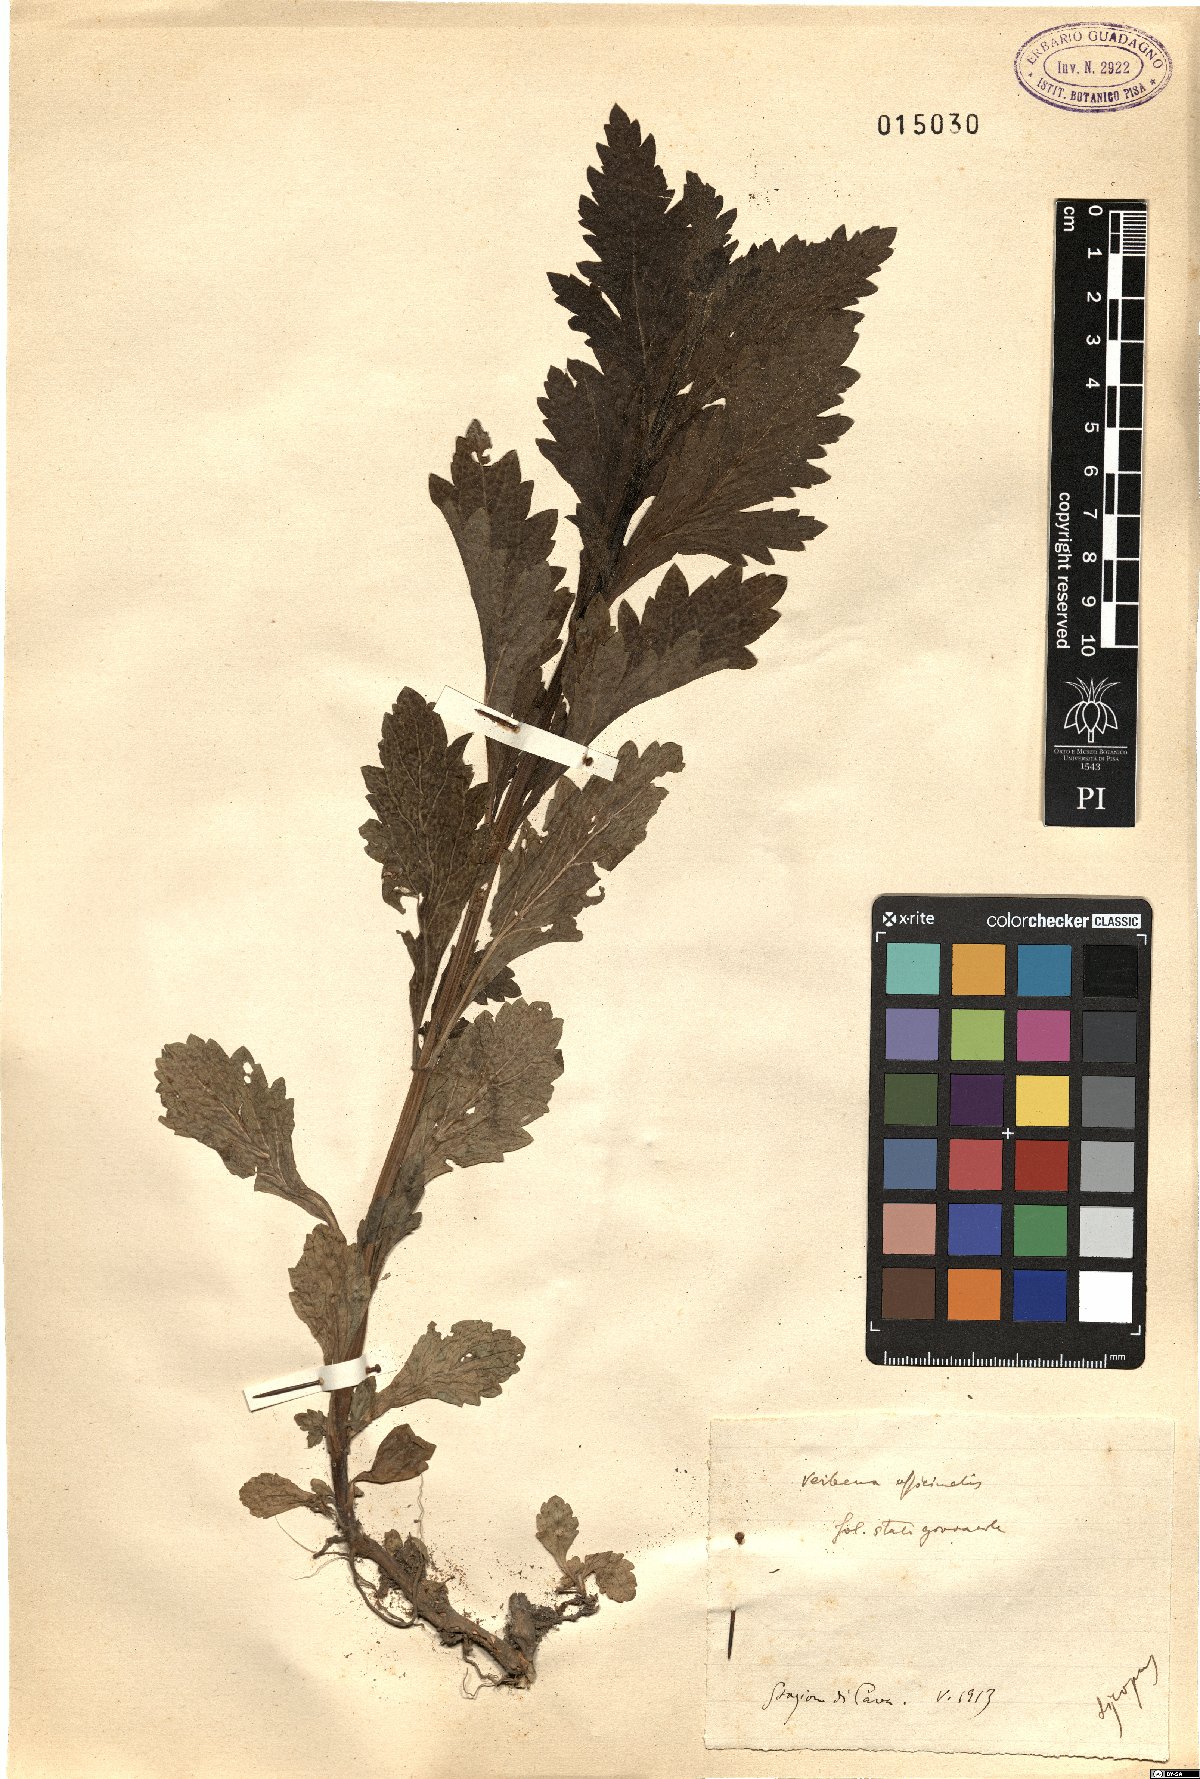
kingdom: Plantae
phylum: Tracheophyta
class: Magnoliopsida
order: Lamiales
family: Verbenaceae
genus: Verbena
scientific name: Verbena officinalis
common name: Vervain
